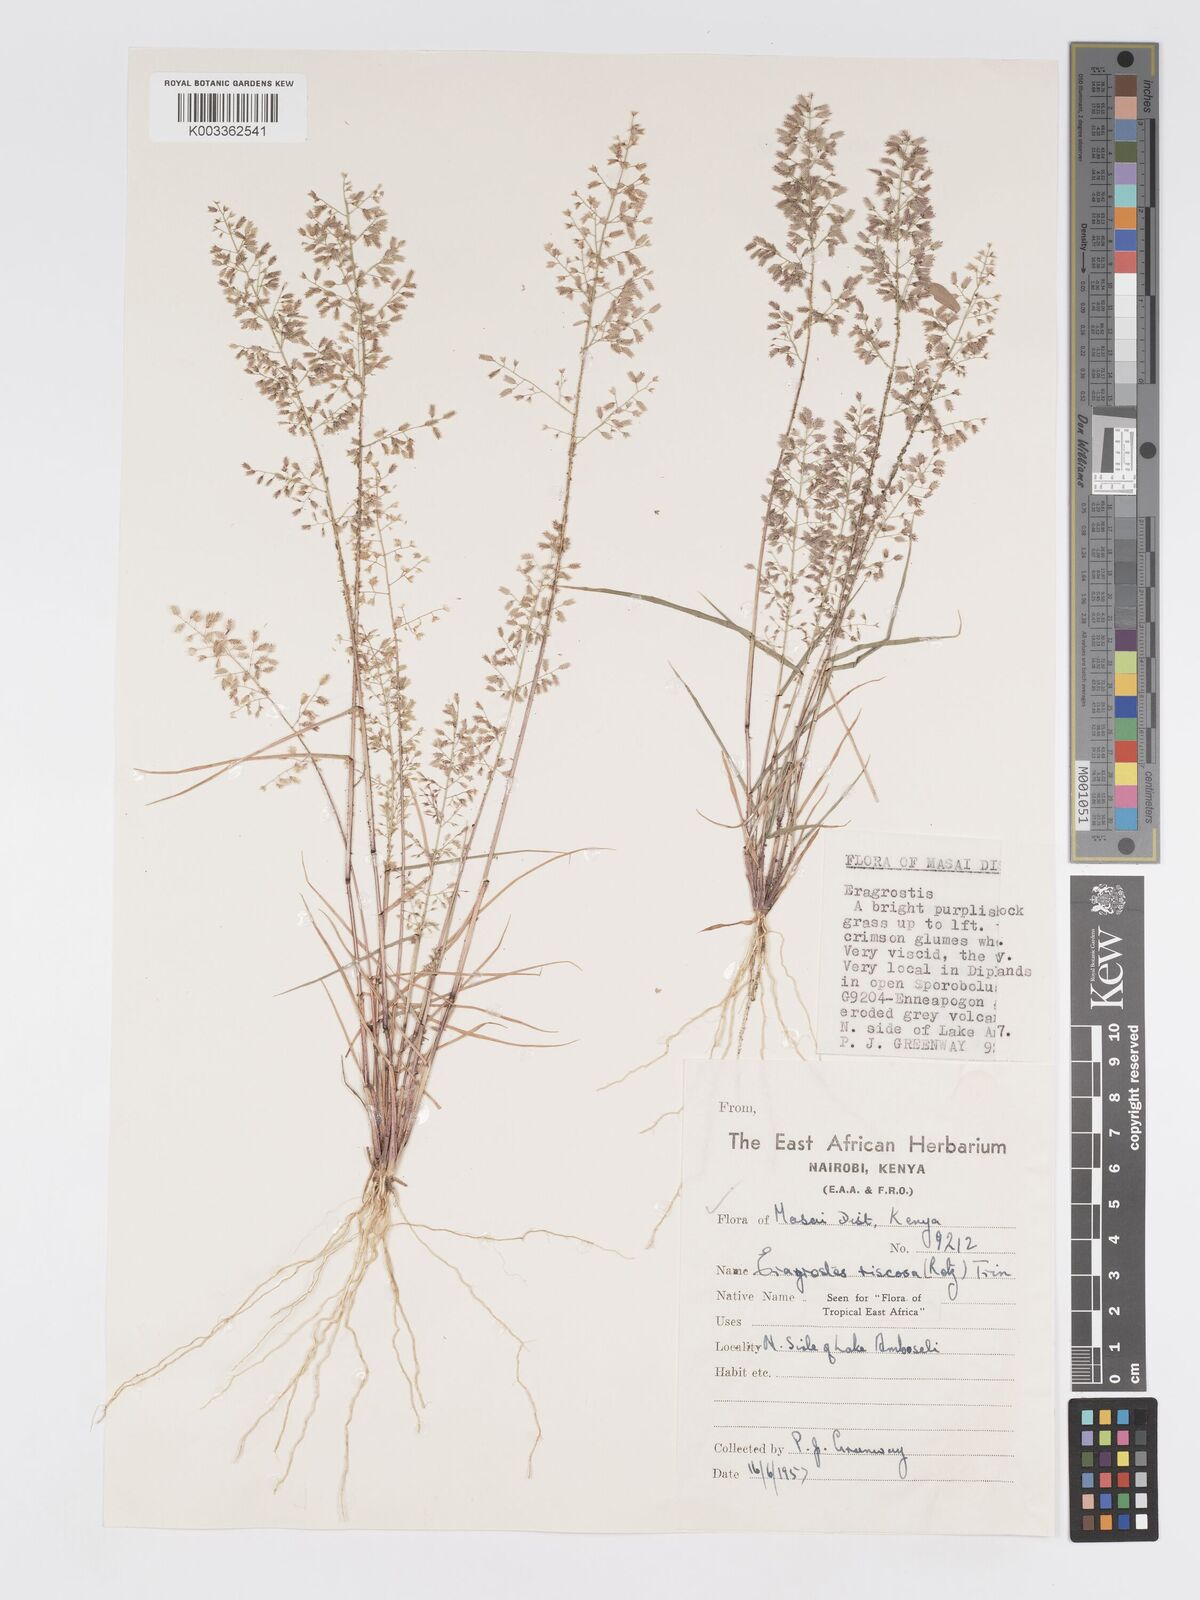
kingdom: Plantae
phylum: Tracheophyta
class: Liliopsida
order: Poales
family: Poaceae
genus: Eragrostis
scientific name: Eragrostis viscosa
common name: Sticky love grass
